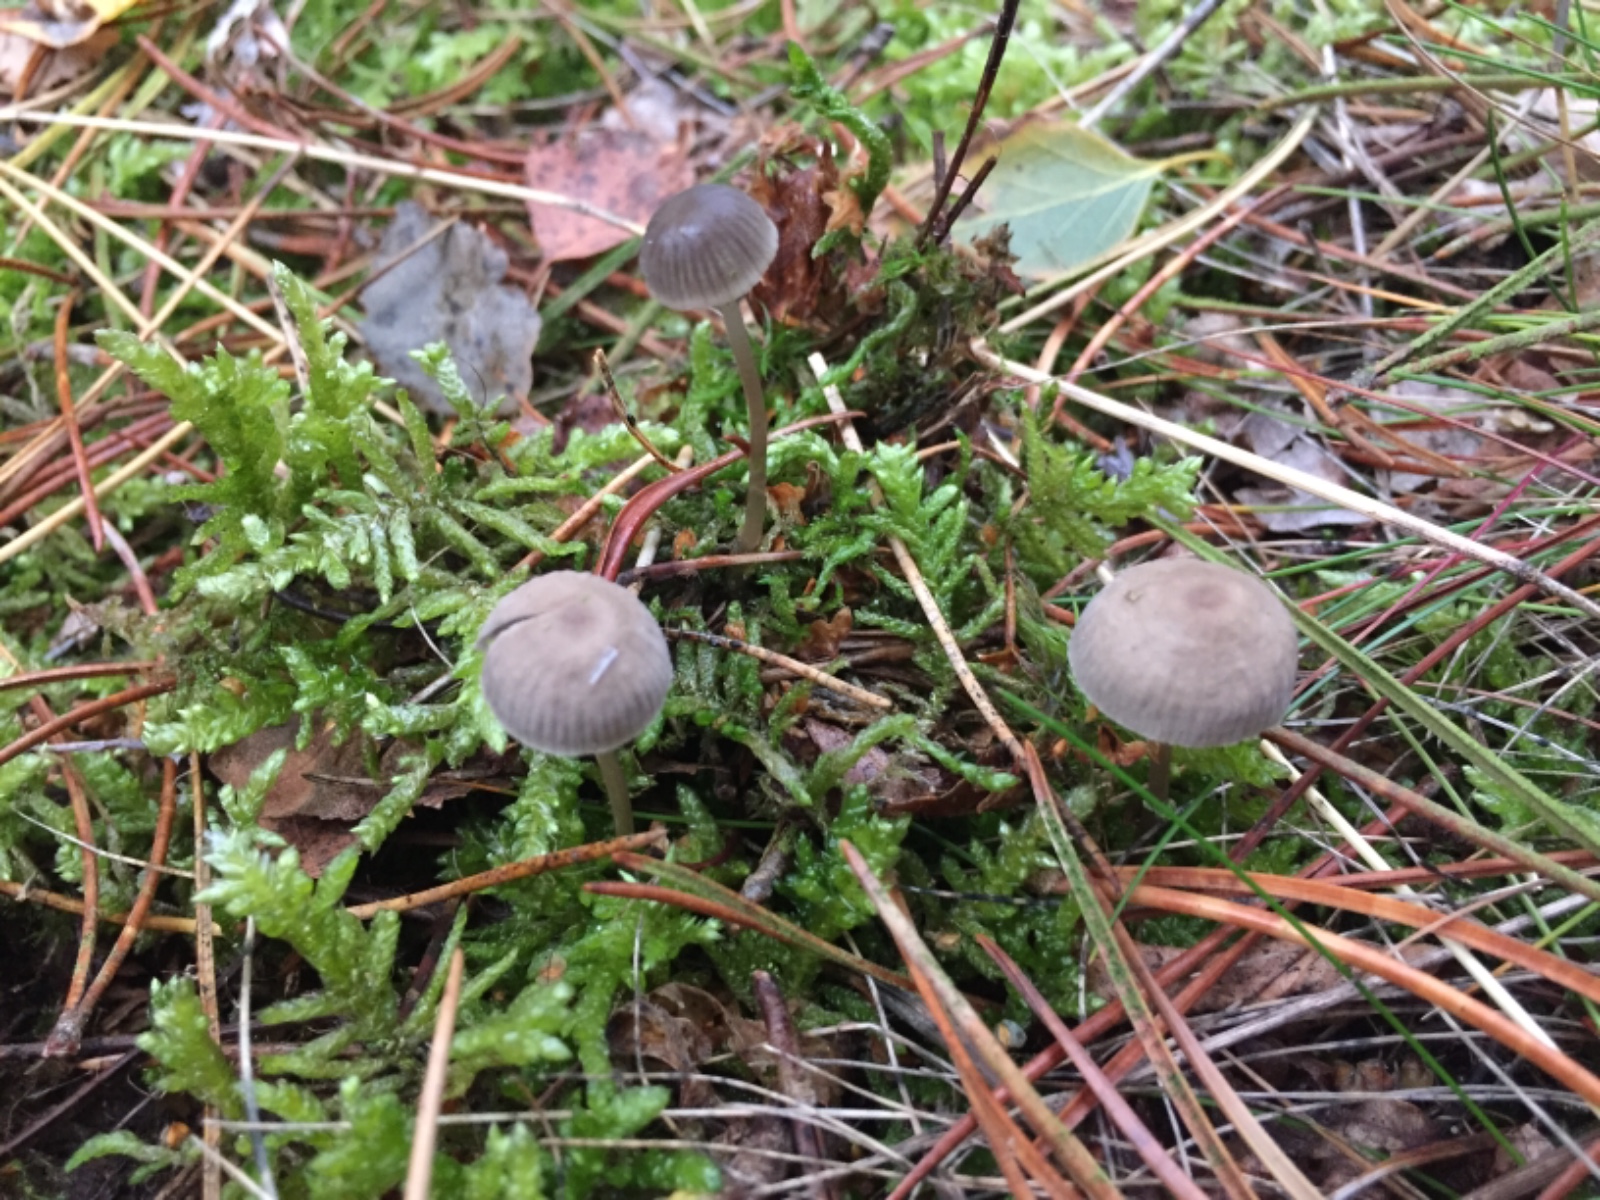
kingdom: Fungi
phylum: Basidiomycota
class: Agaricomycetes
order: Agaricales
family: Mycenaceae
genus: Mycena
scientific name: Mycena clavicularis
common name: fyrre-huesvamp
